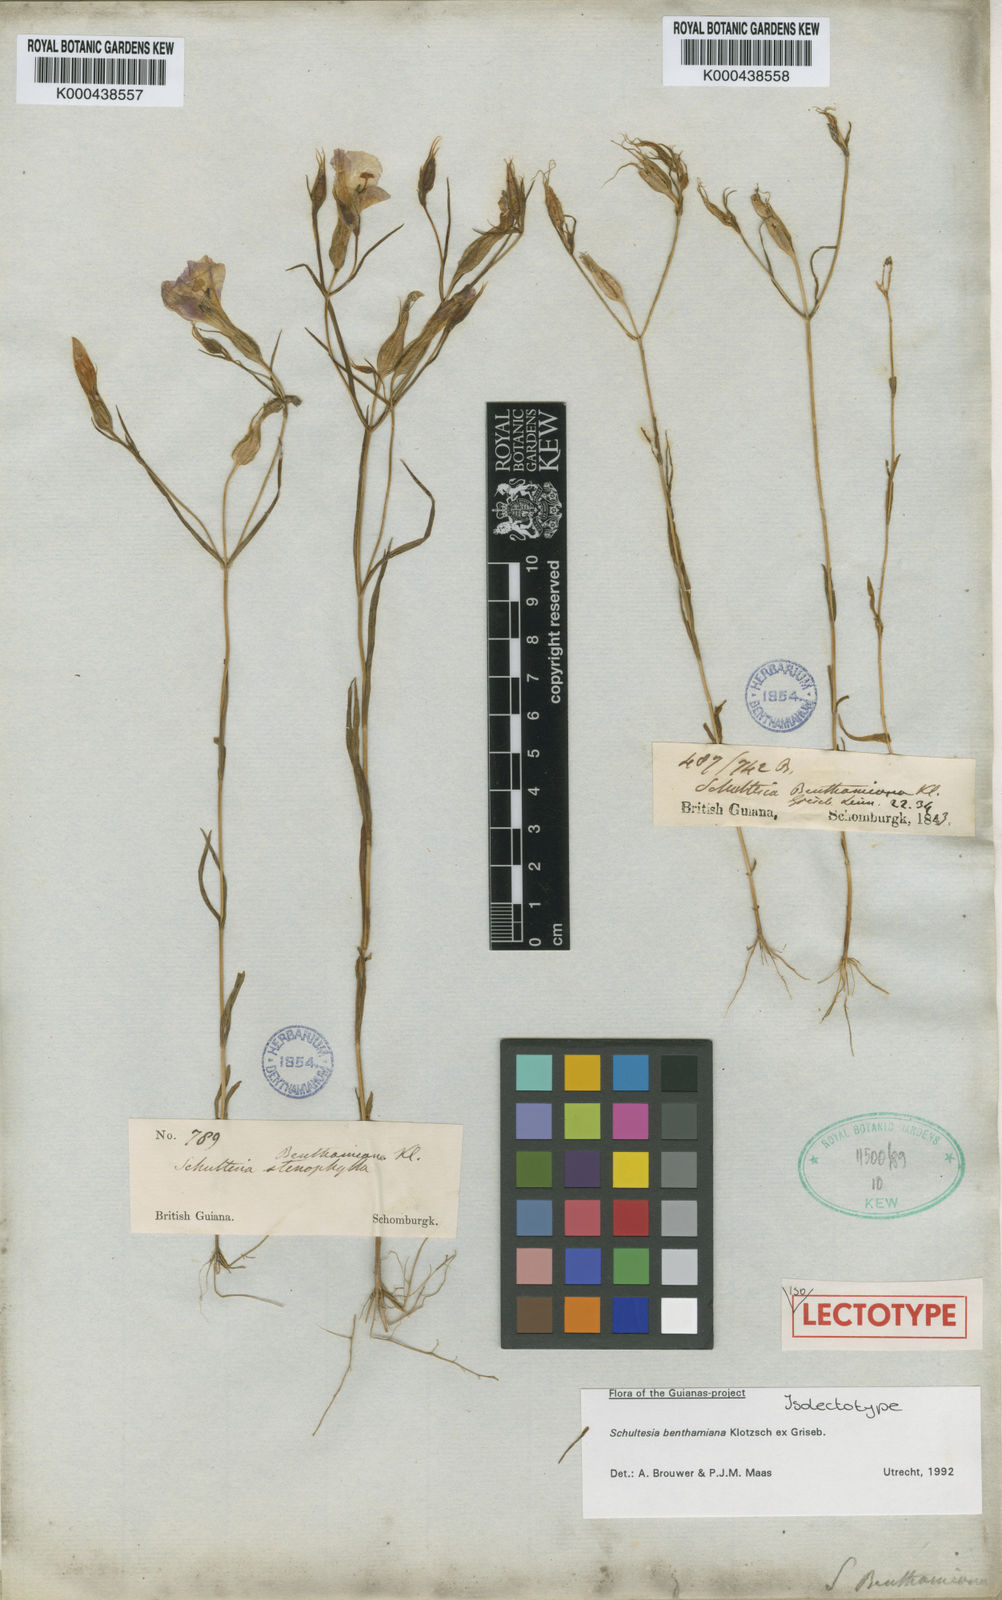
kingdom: Plantae
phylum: Tracheophyta
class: Magnoliopsida
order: Gentianales
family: Gentianaceae
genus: Schultesia
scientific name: Schultesia benthamiana
